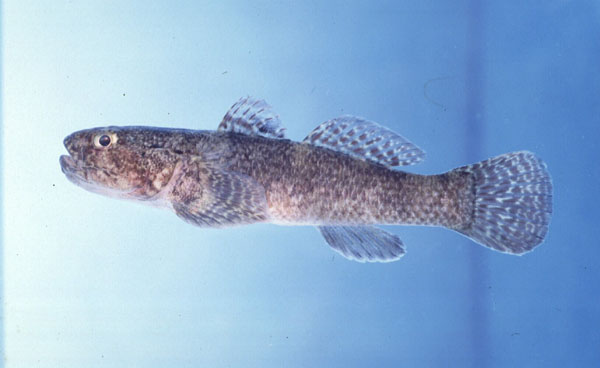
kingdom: Animalia
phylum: Chordata
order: Perciformes
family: Gobiidae
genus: Bathygobius
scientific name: Bathygobius cotticeps
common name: Cheekscaled frillgoby
